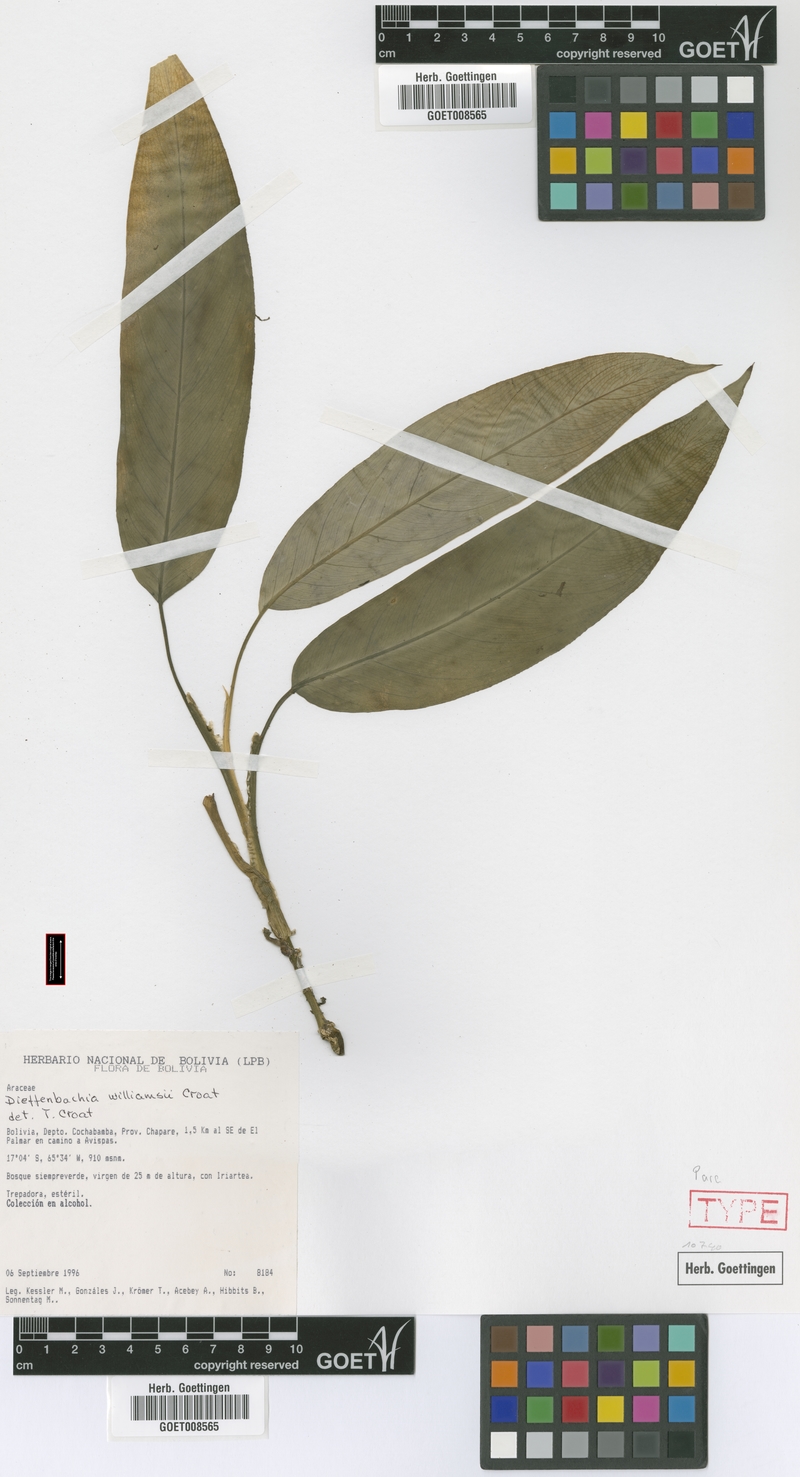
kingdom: Plantae
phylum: Tracheophyta
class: Liliopsida
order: Alismatales
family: Araceae
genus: Dieffenbachia
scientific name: Dieffenbachia williamsii
